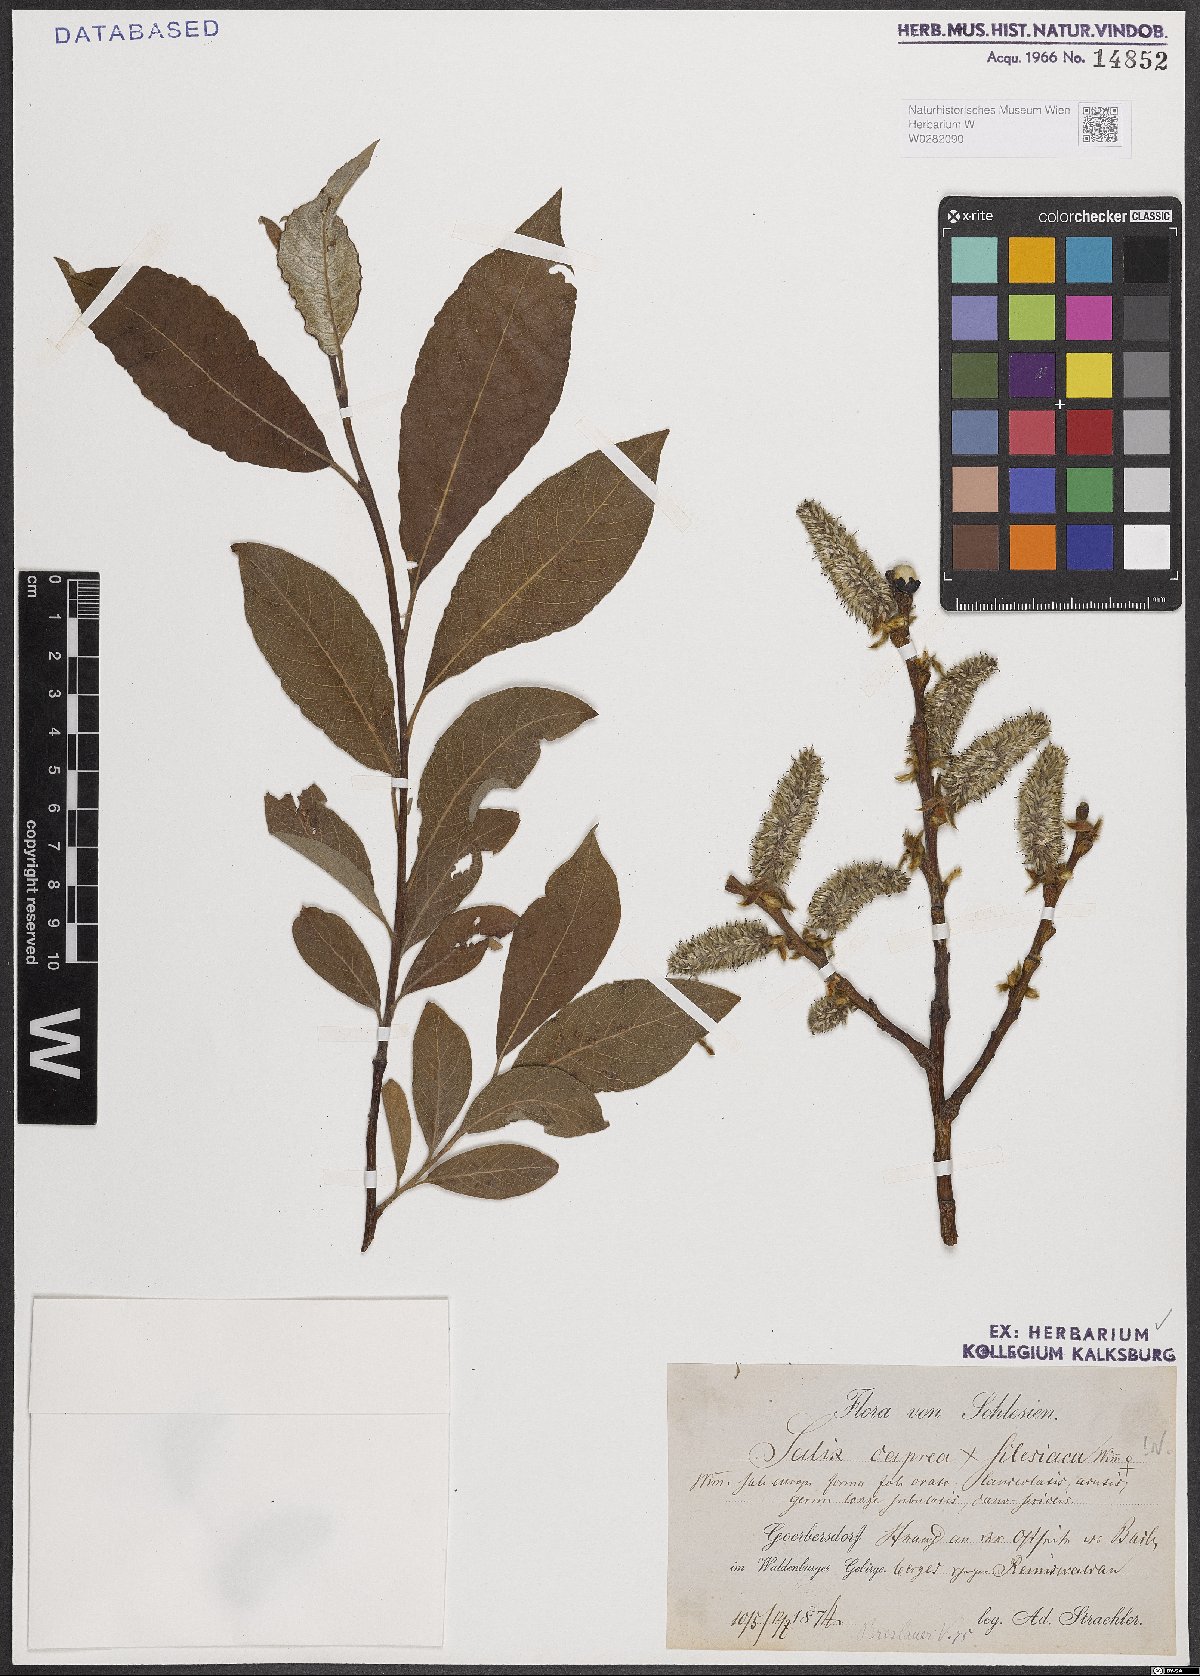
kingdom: Plantae
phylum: Tracheophyta
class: Magnoliopsida
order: Malpighiales
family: Salicaceae
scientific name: Salicaceae
